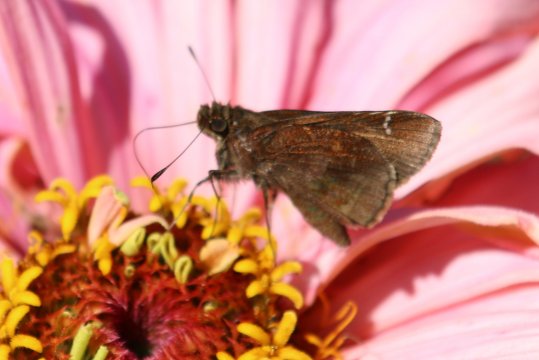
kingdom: Animalia
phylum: Arthropoda
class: Insecta
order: Lepidoptera
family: Hesperiidae
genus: Lerema
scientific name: Lerema accius
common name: Clouded Skipper
